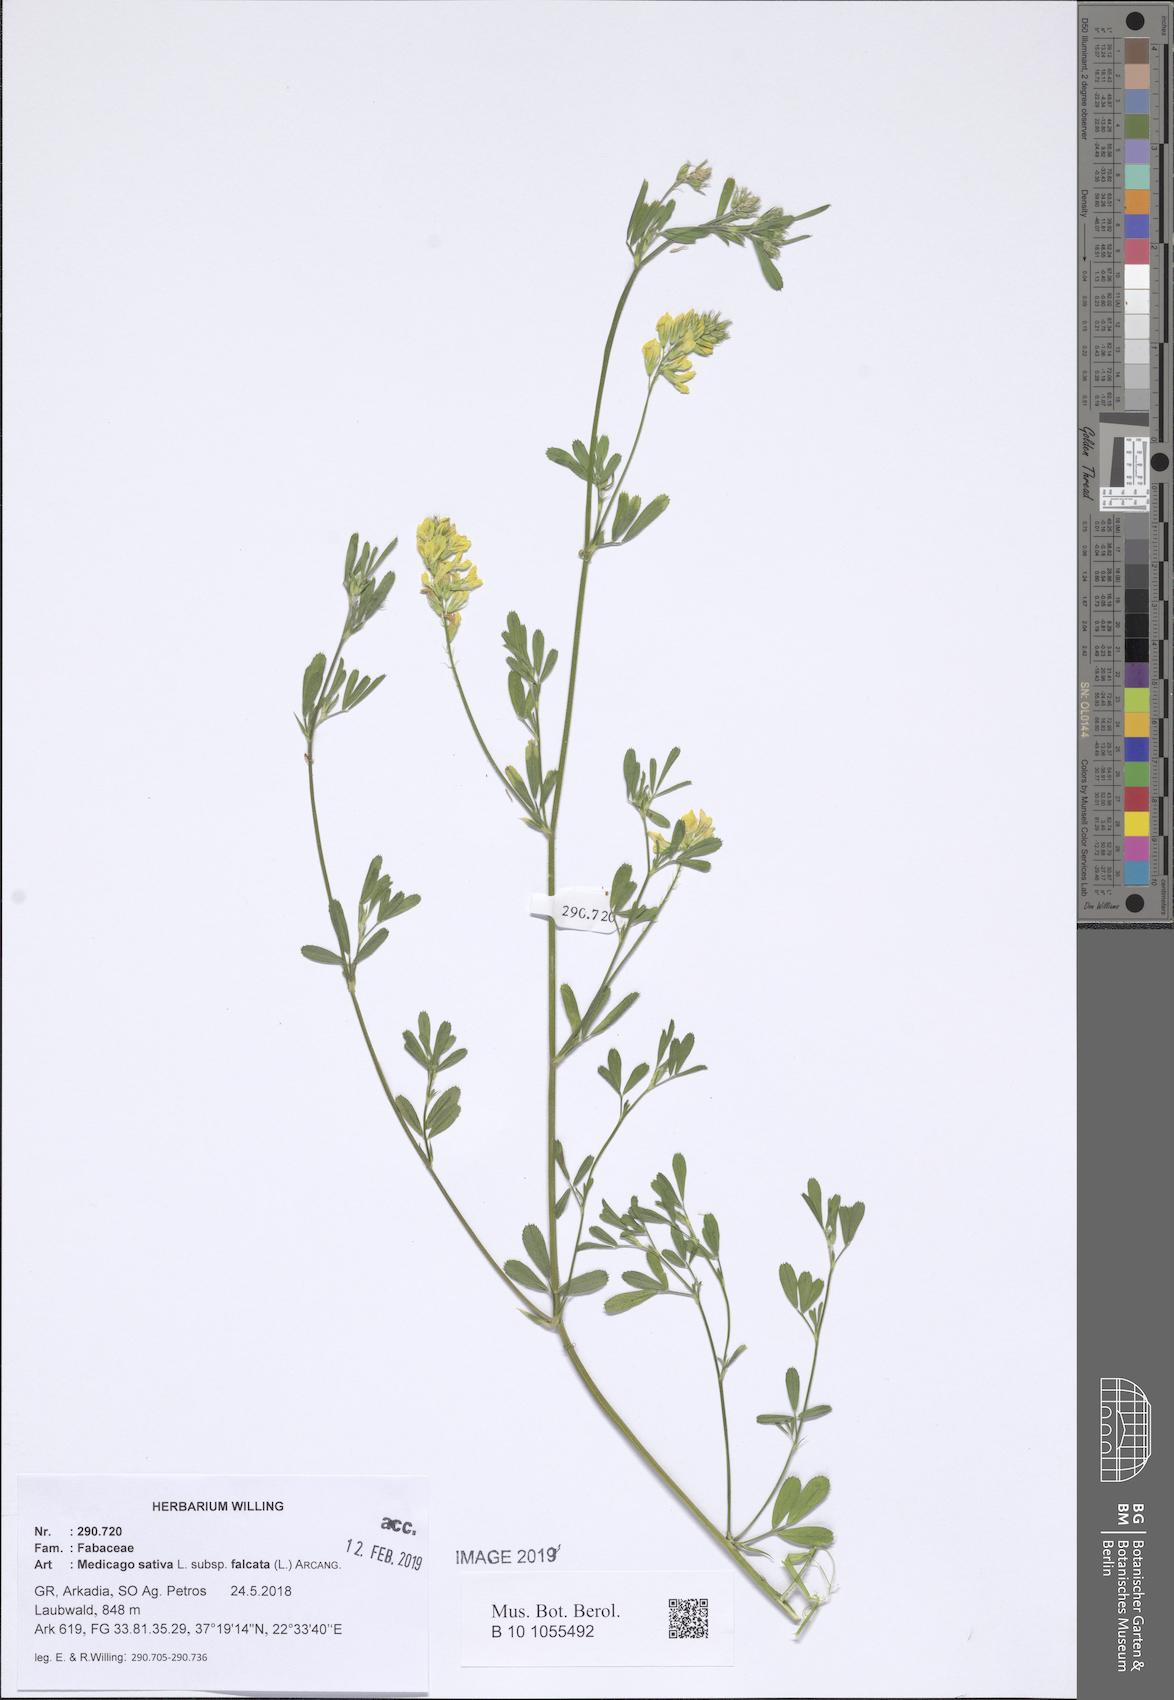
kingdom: Plantae
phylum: Tracheophyta
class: Magnoliopsida
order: Fabales
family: Fabaceae
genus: Medicago
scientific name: Medicago falcata
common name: Sickle medick
